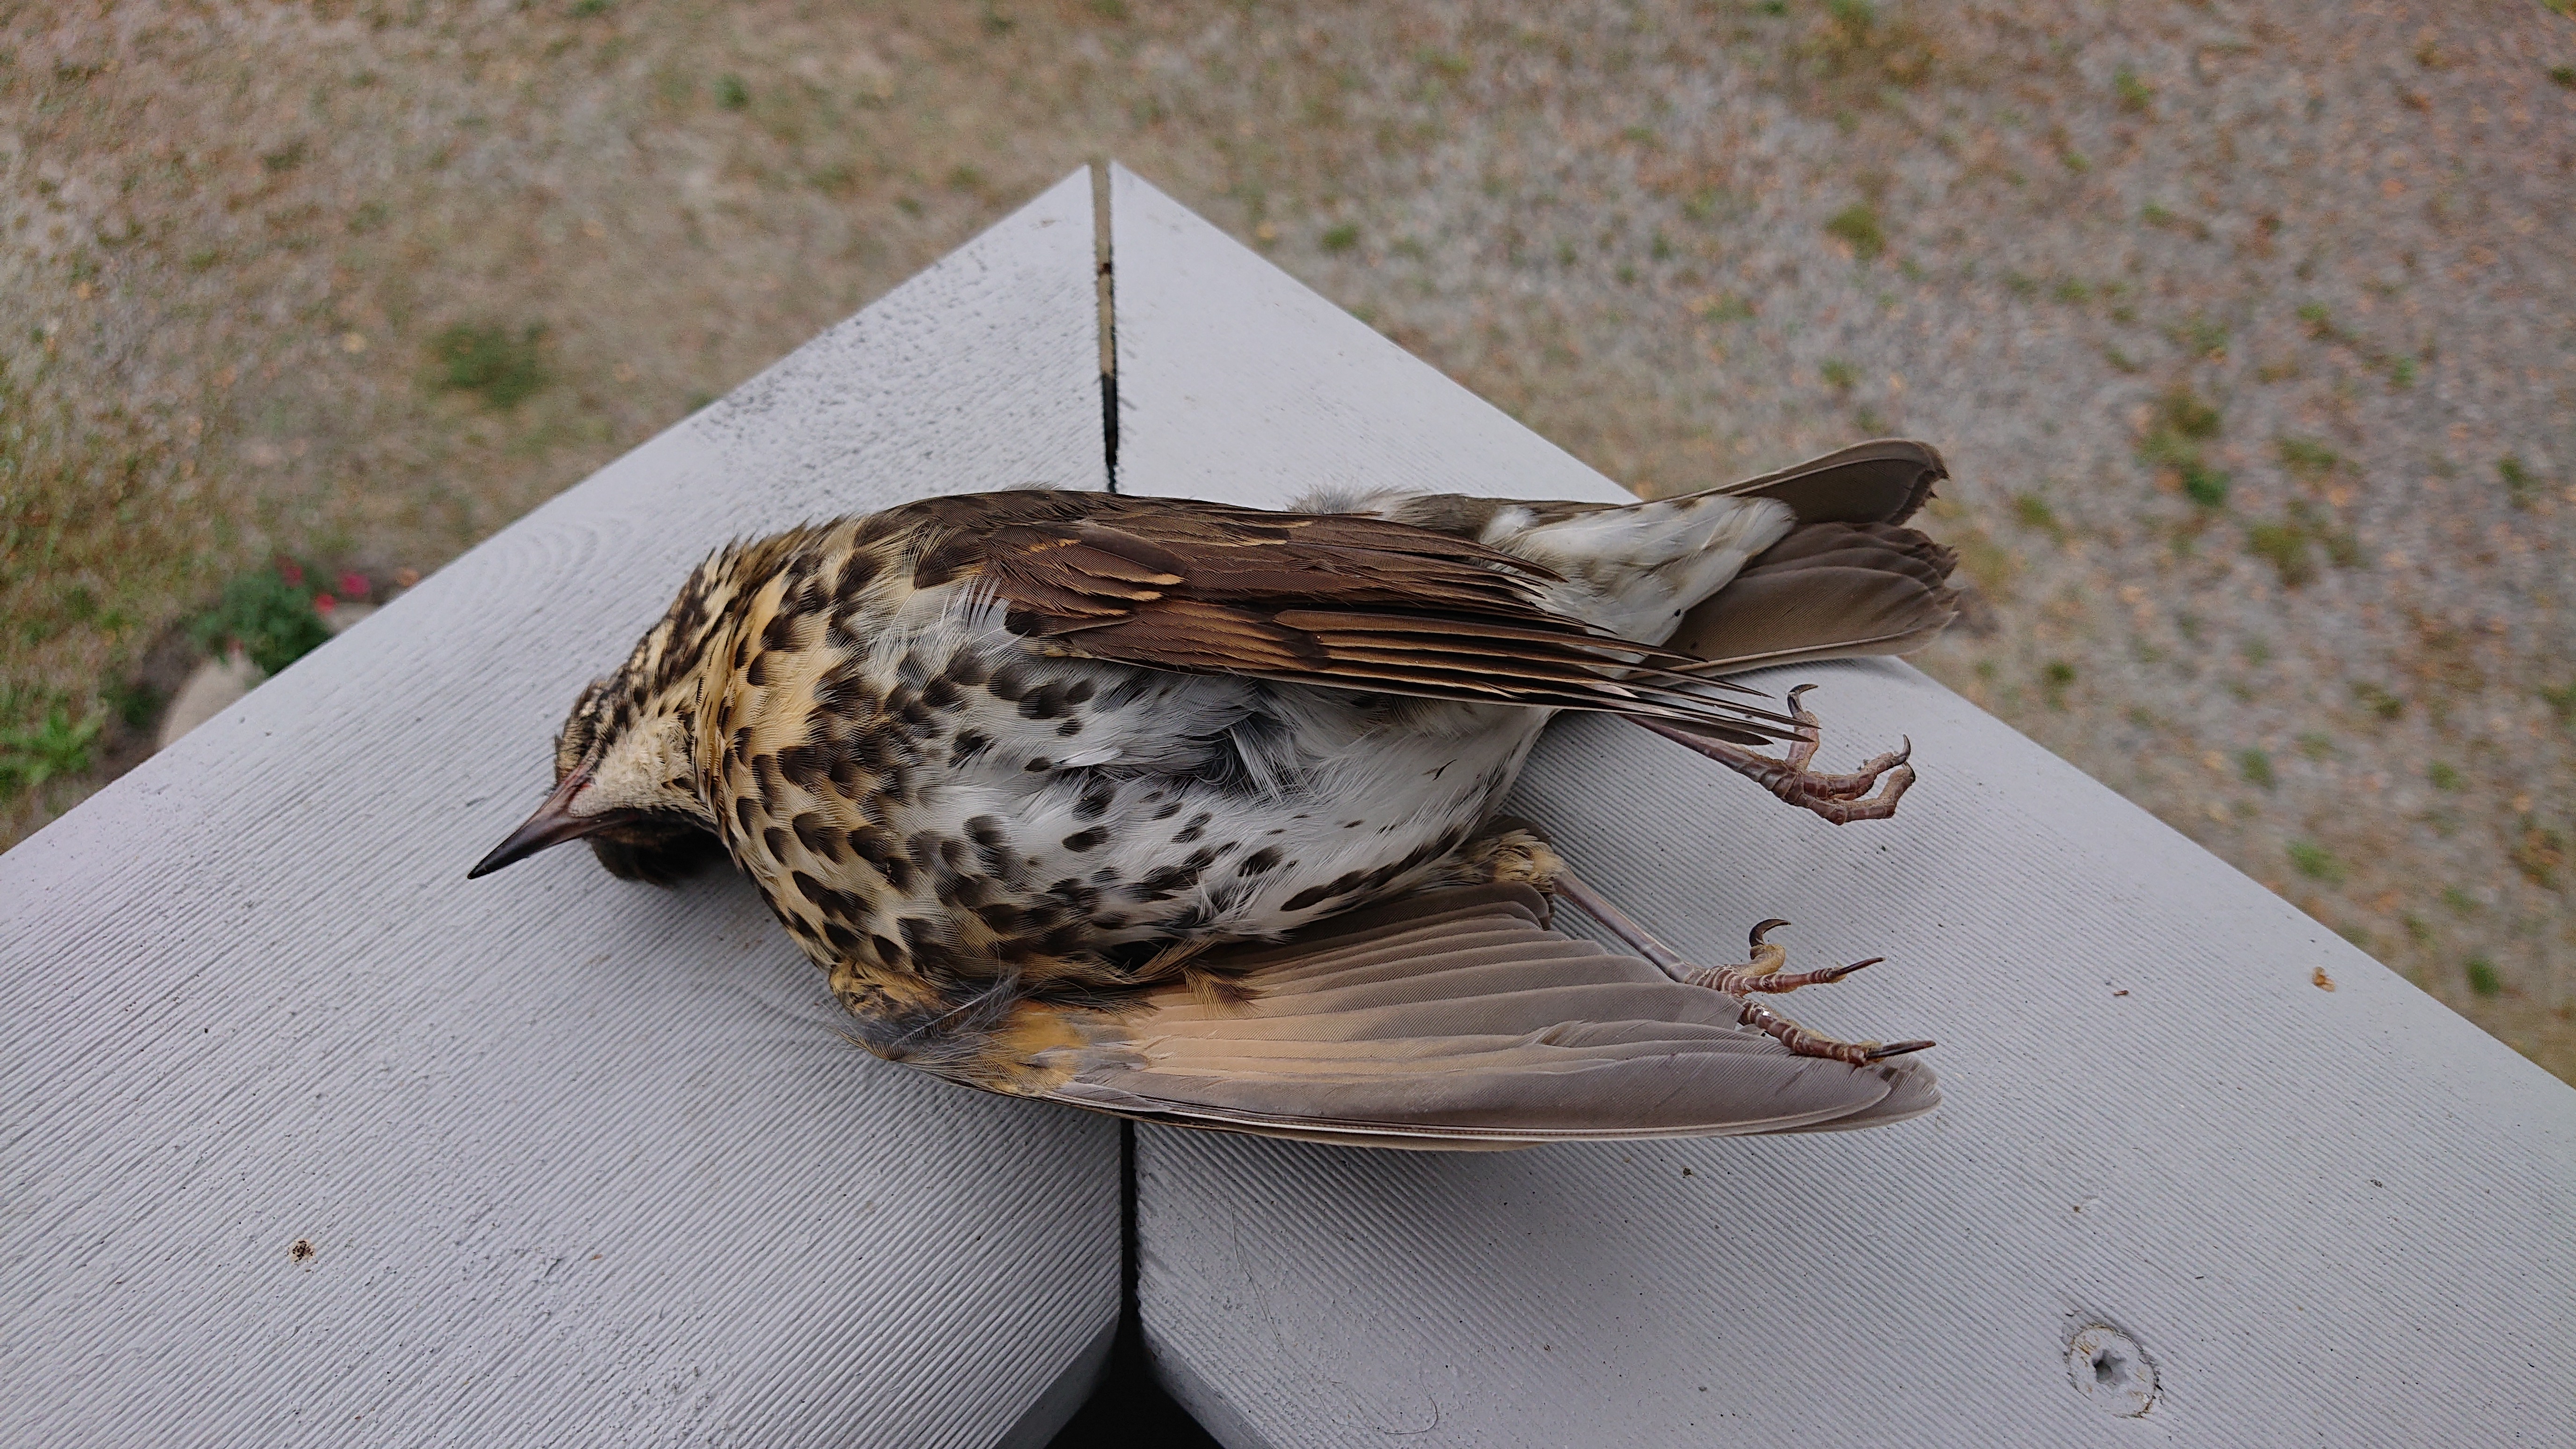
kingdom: Animalia
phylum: Chordata
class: Aves
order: Passeriformes
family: Turdidae
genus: Turdus
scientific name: Turdus philomelos
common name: Song thrush
